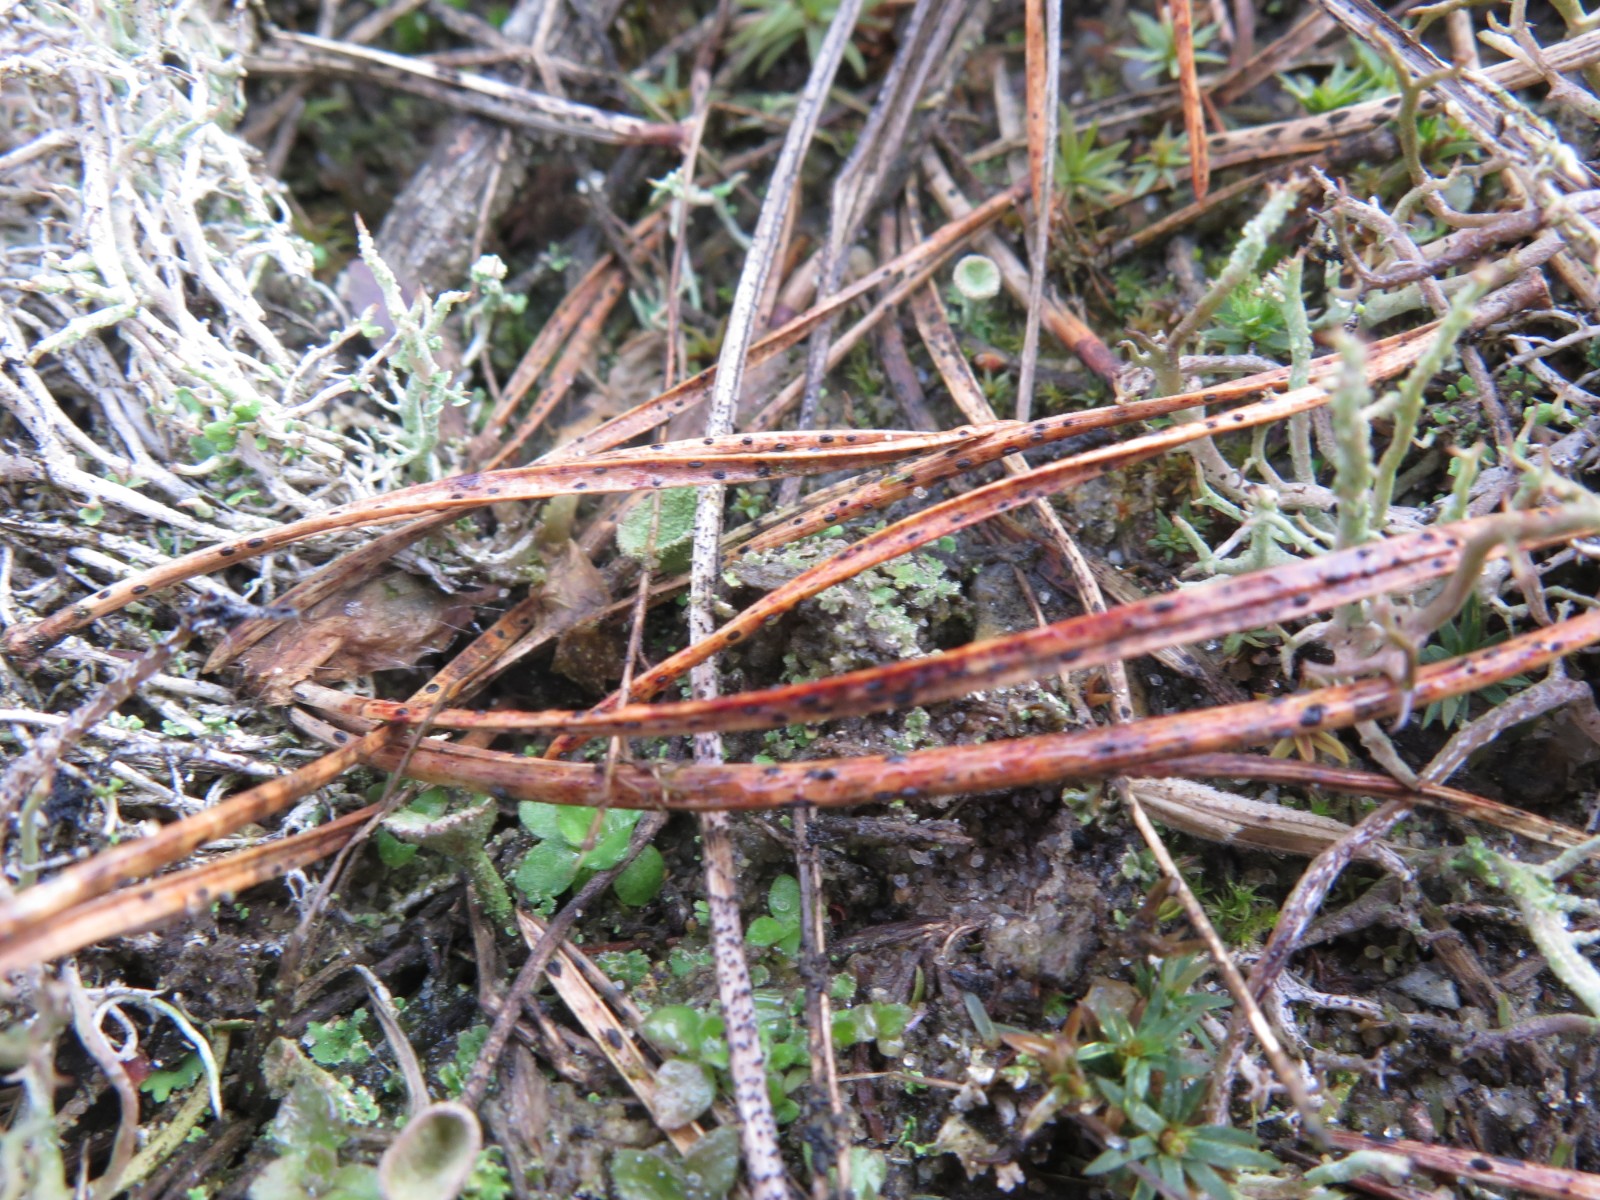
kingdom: Fungi
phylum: Ascomycota
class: Leotiomycetes
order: Rhytismatales
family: Rhytismataceae
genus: Lophodermium
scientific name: Lophodermium
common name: fureplet
